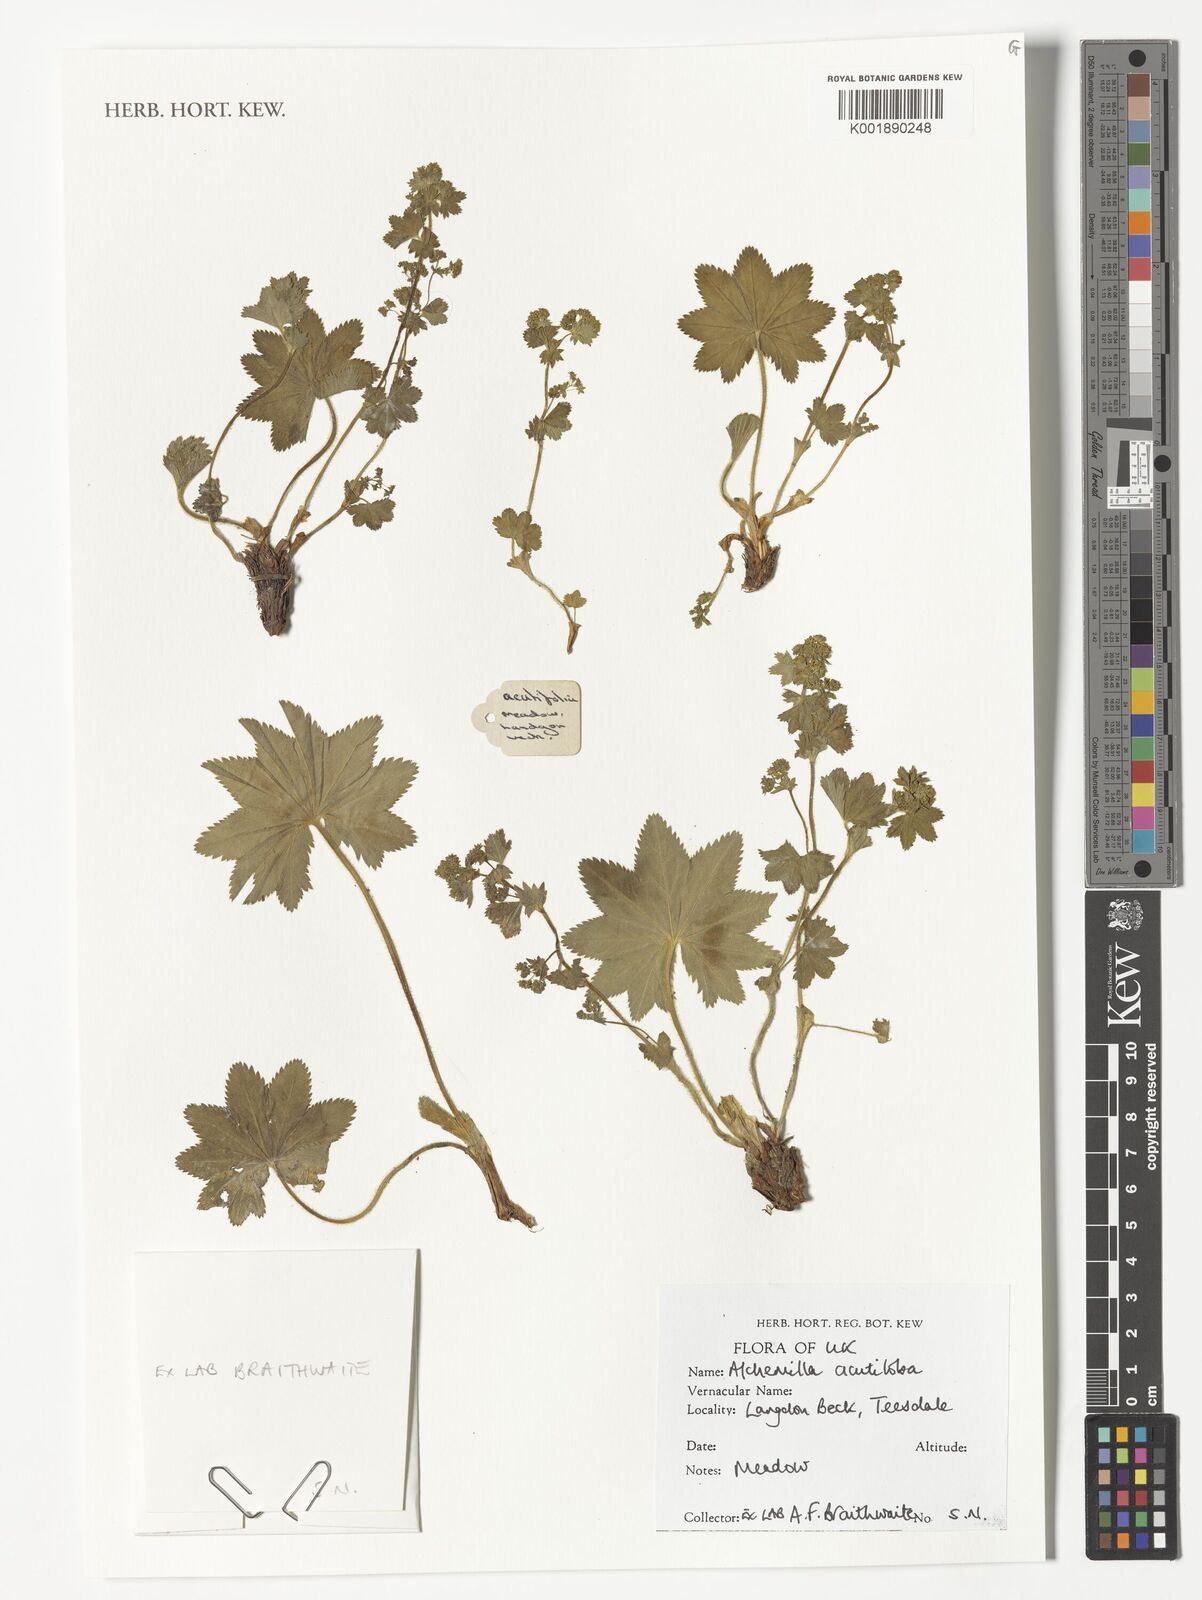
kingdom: Plantae
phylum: Tracheophyta
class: Magnoliopsida
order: Rosales
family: Rosaceae
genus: Alchemilla
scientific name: Alchemilla mollis
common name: Lady's-mantle
